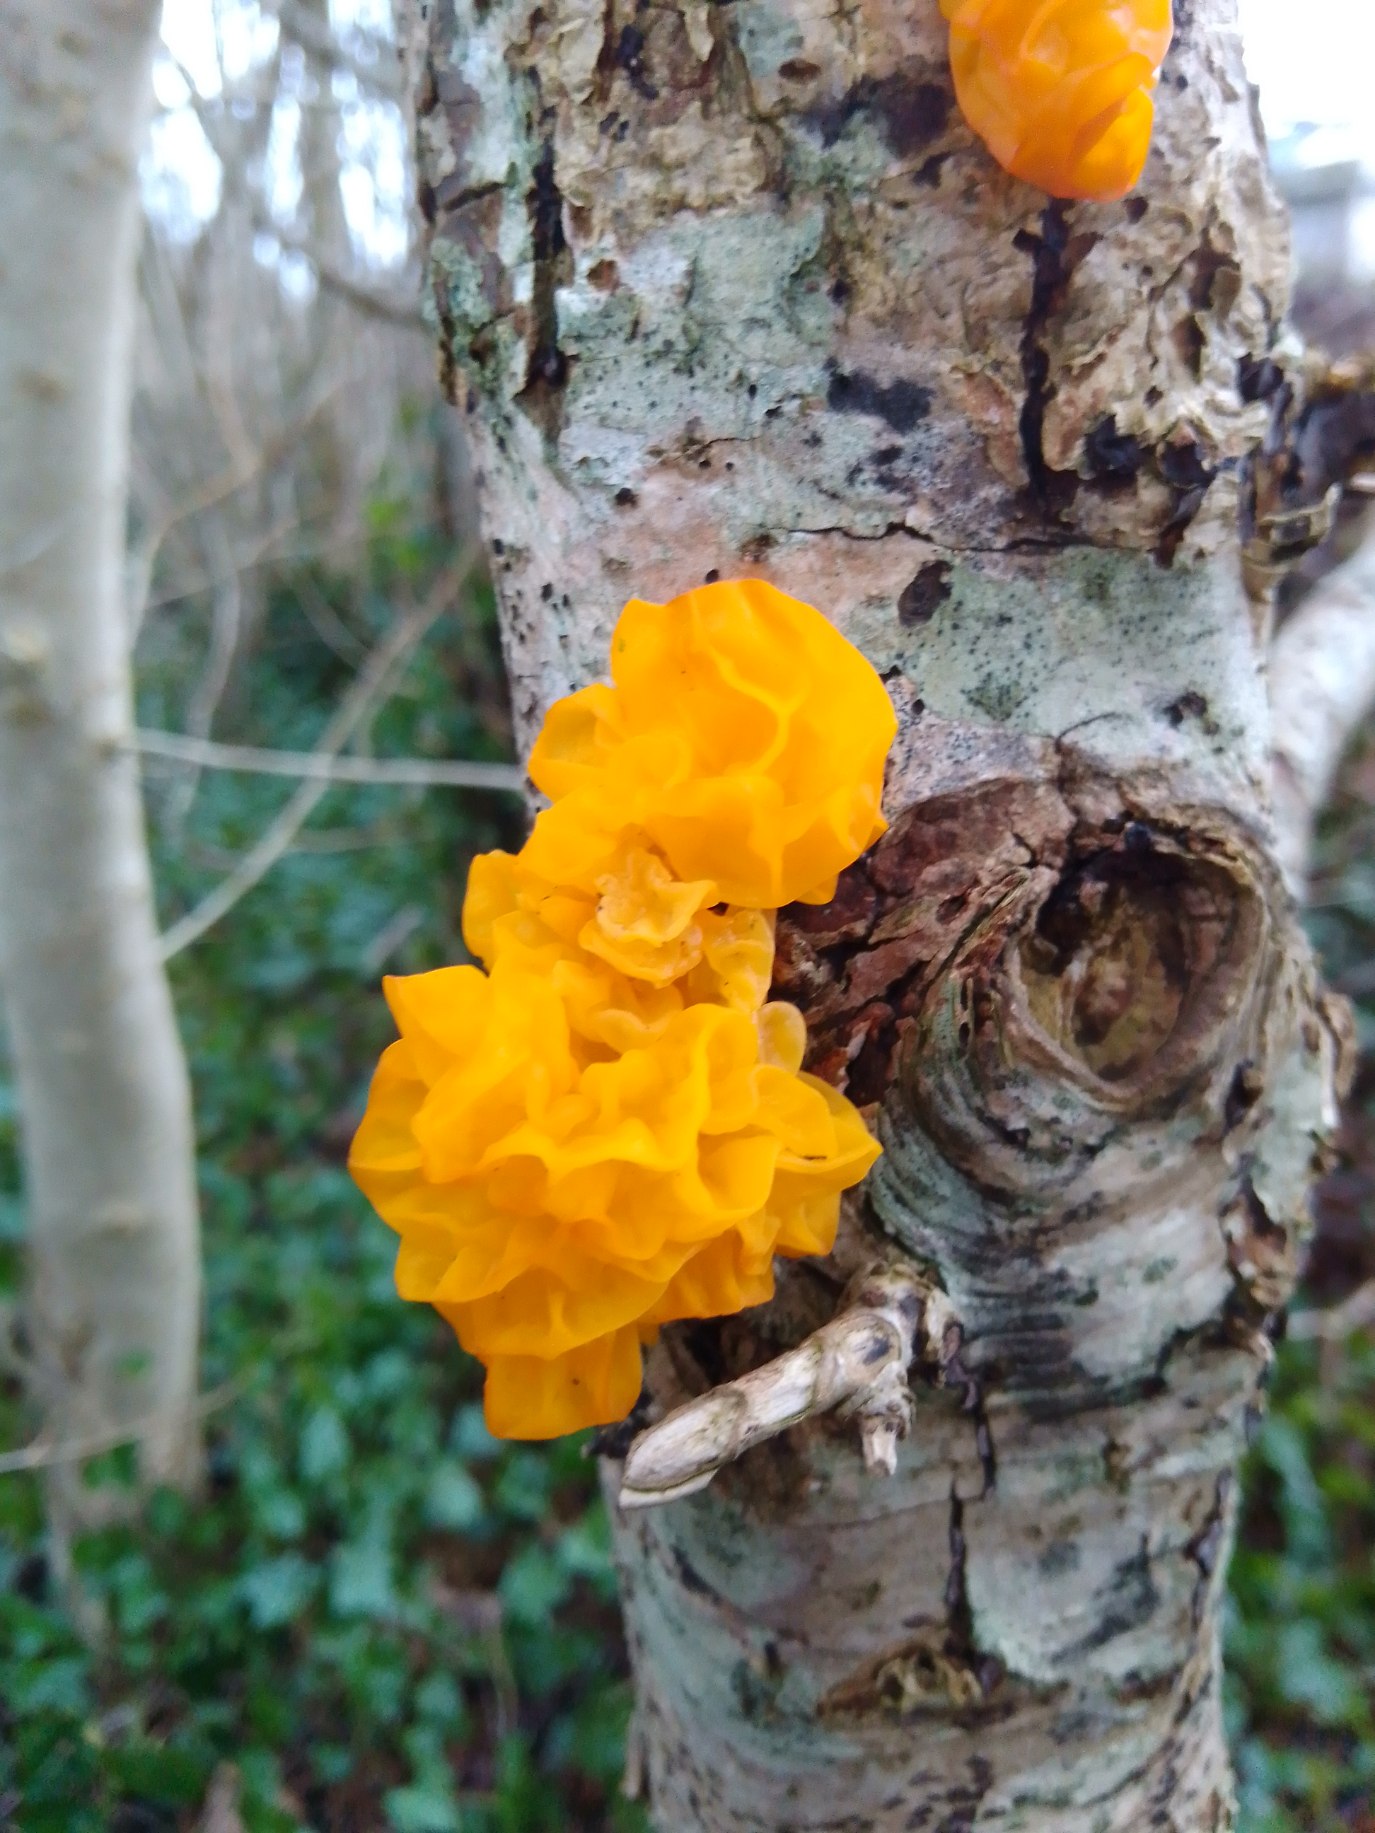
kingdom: Fungi
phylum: Basidiomycota
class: Tremellomycetes
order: Tremellales
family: Tremellaceae
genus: Tremella
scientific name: Tremella mesenterica
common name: Gul bævresvamp
